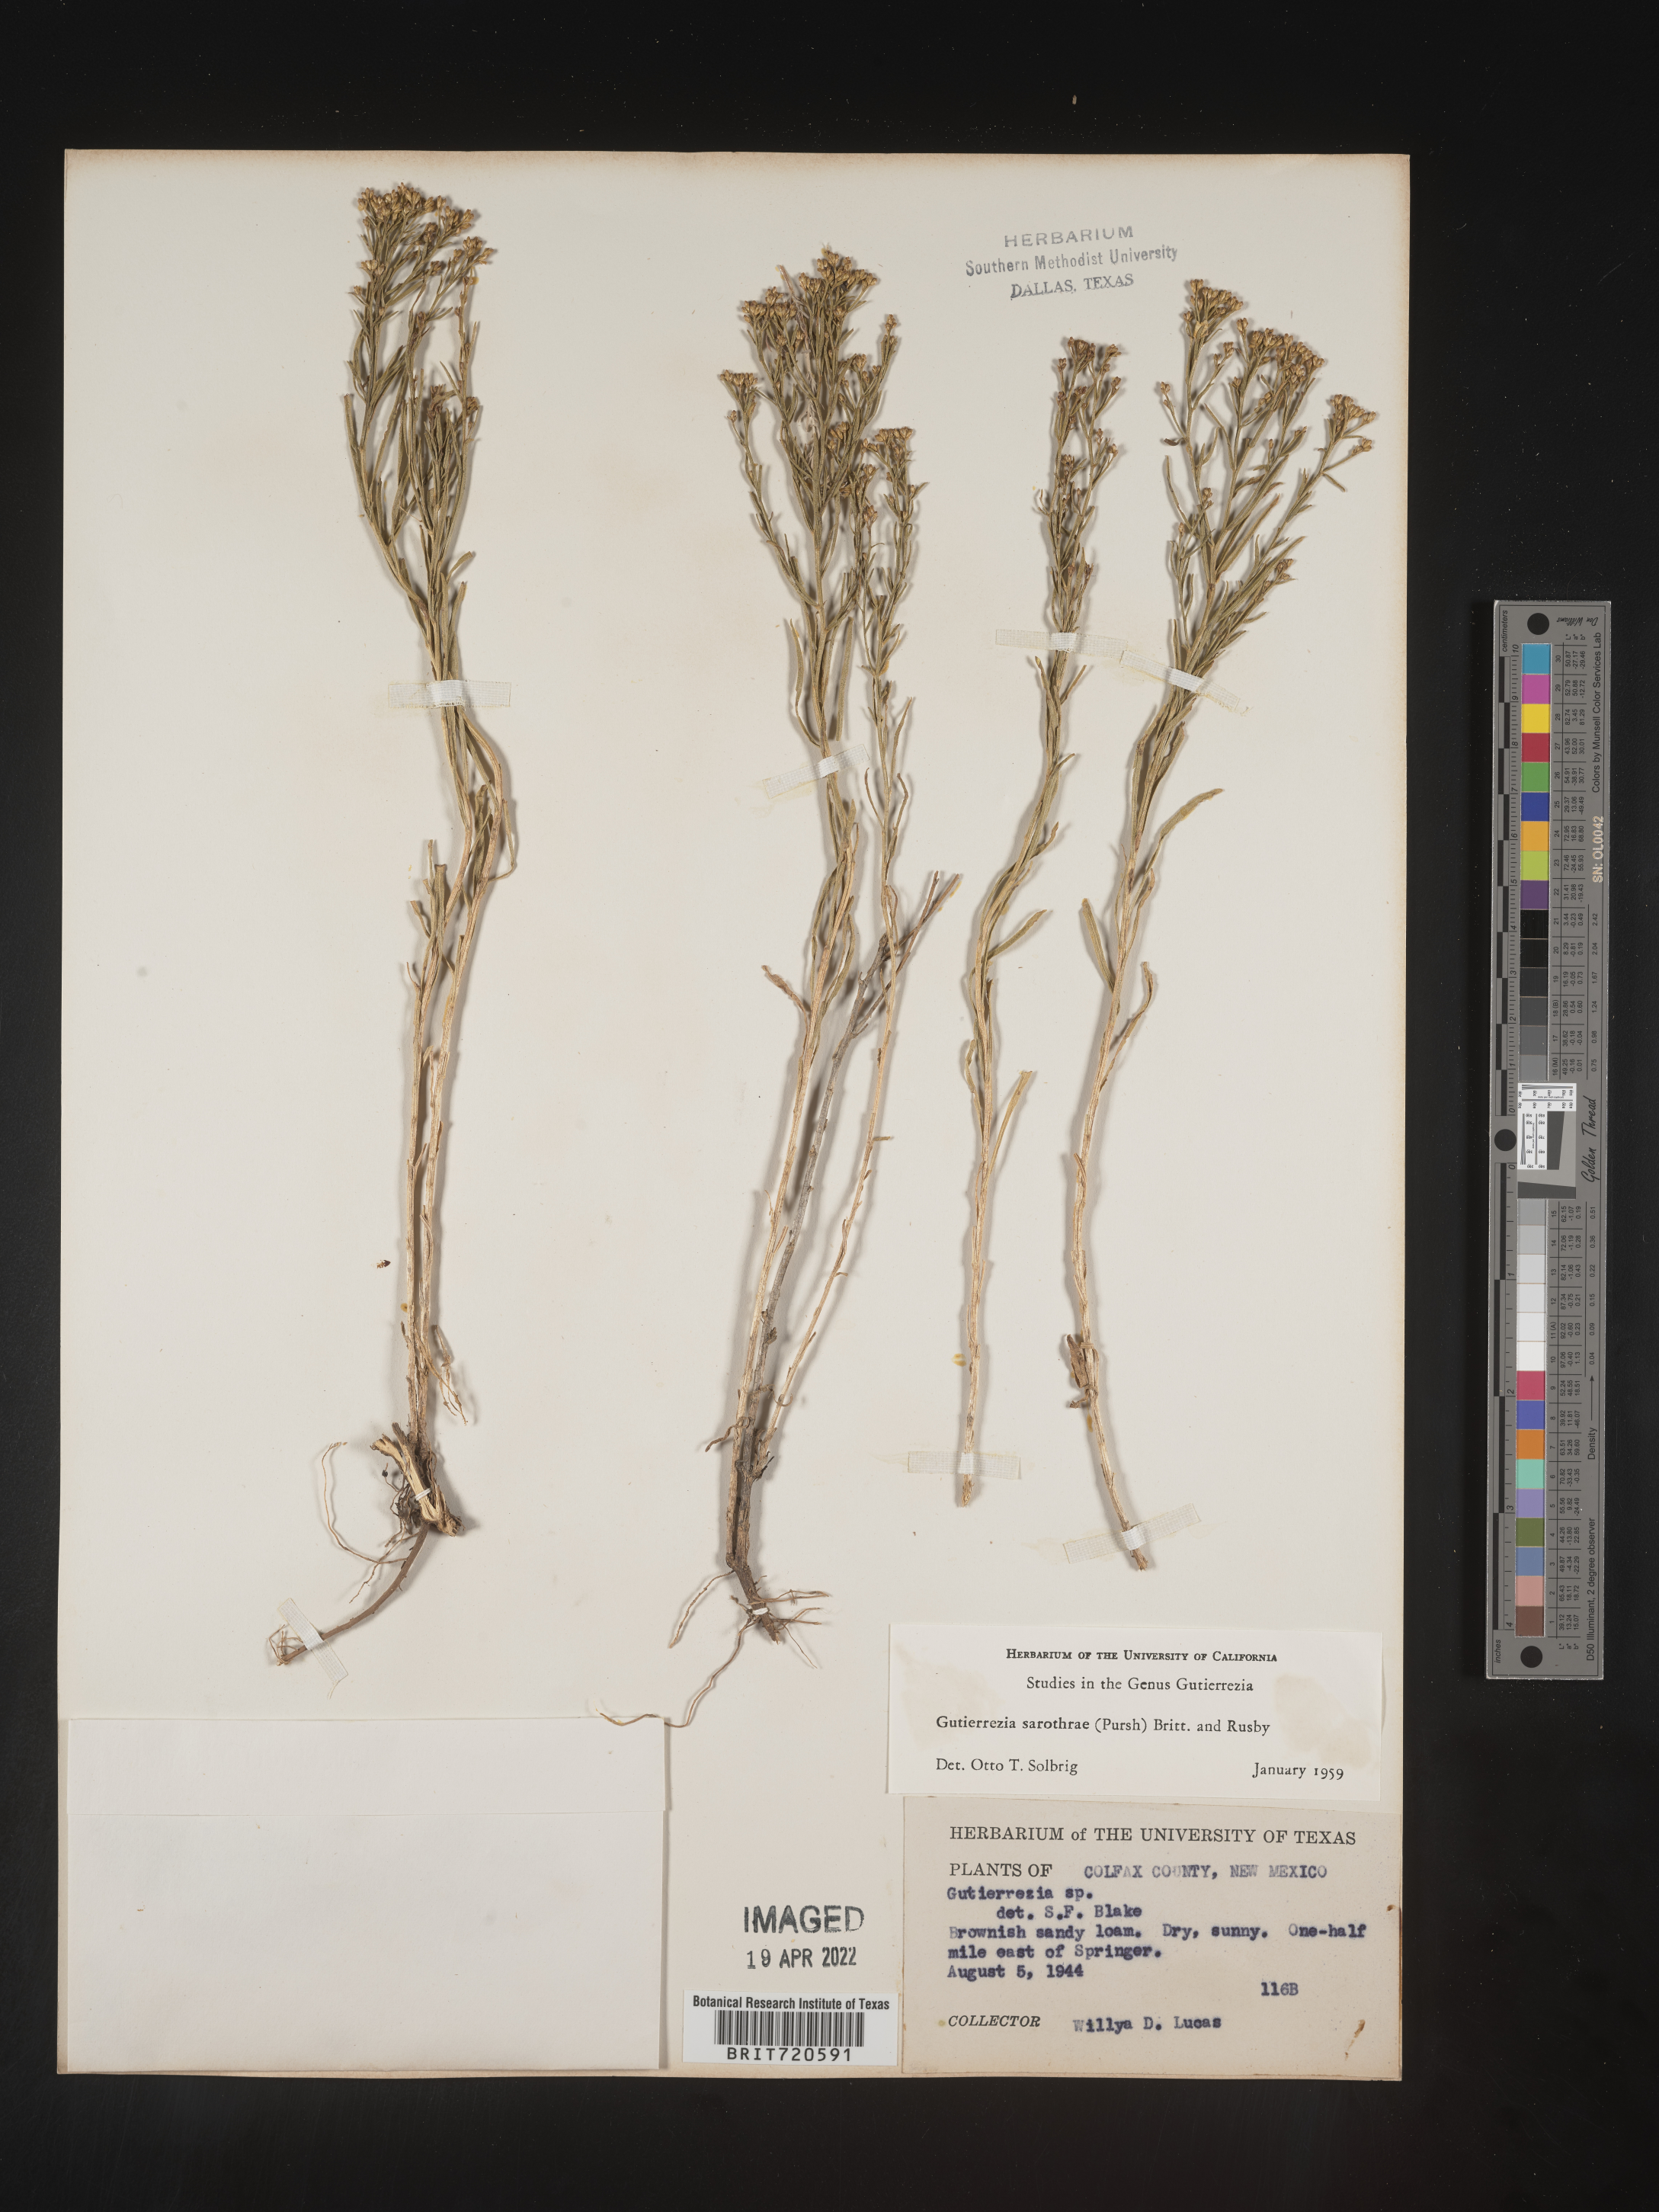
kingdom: Plantae
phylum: Tracheophyta
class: Magnoliopsida
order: Asterales
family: Asteraceae
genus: Gutierrezia
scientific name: Gutierrezia sarothrae
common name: Broom snakeweed
